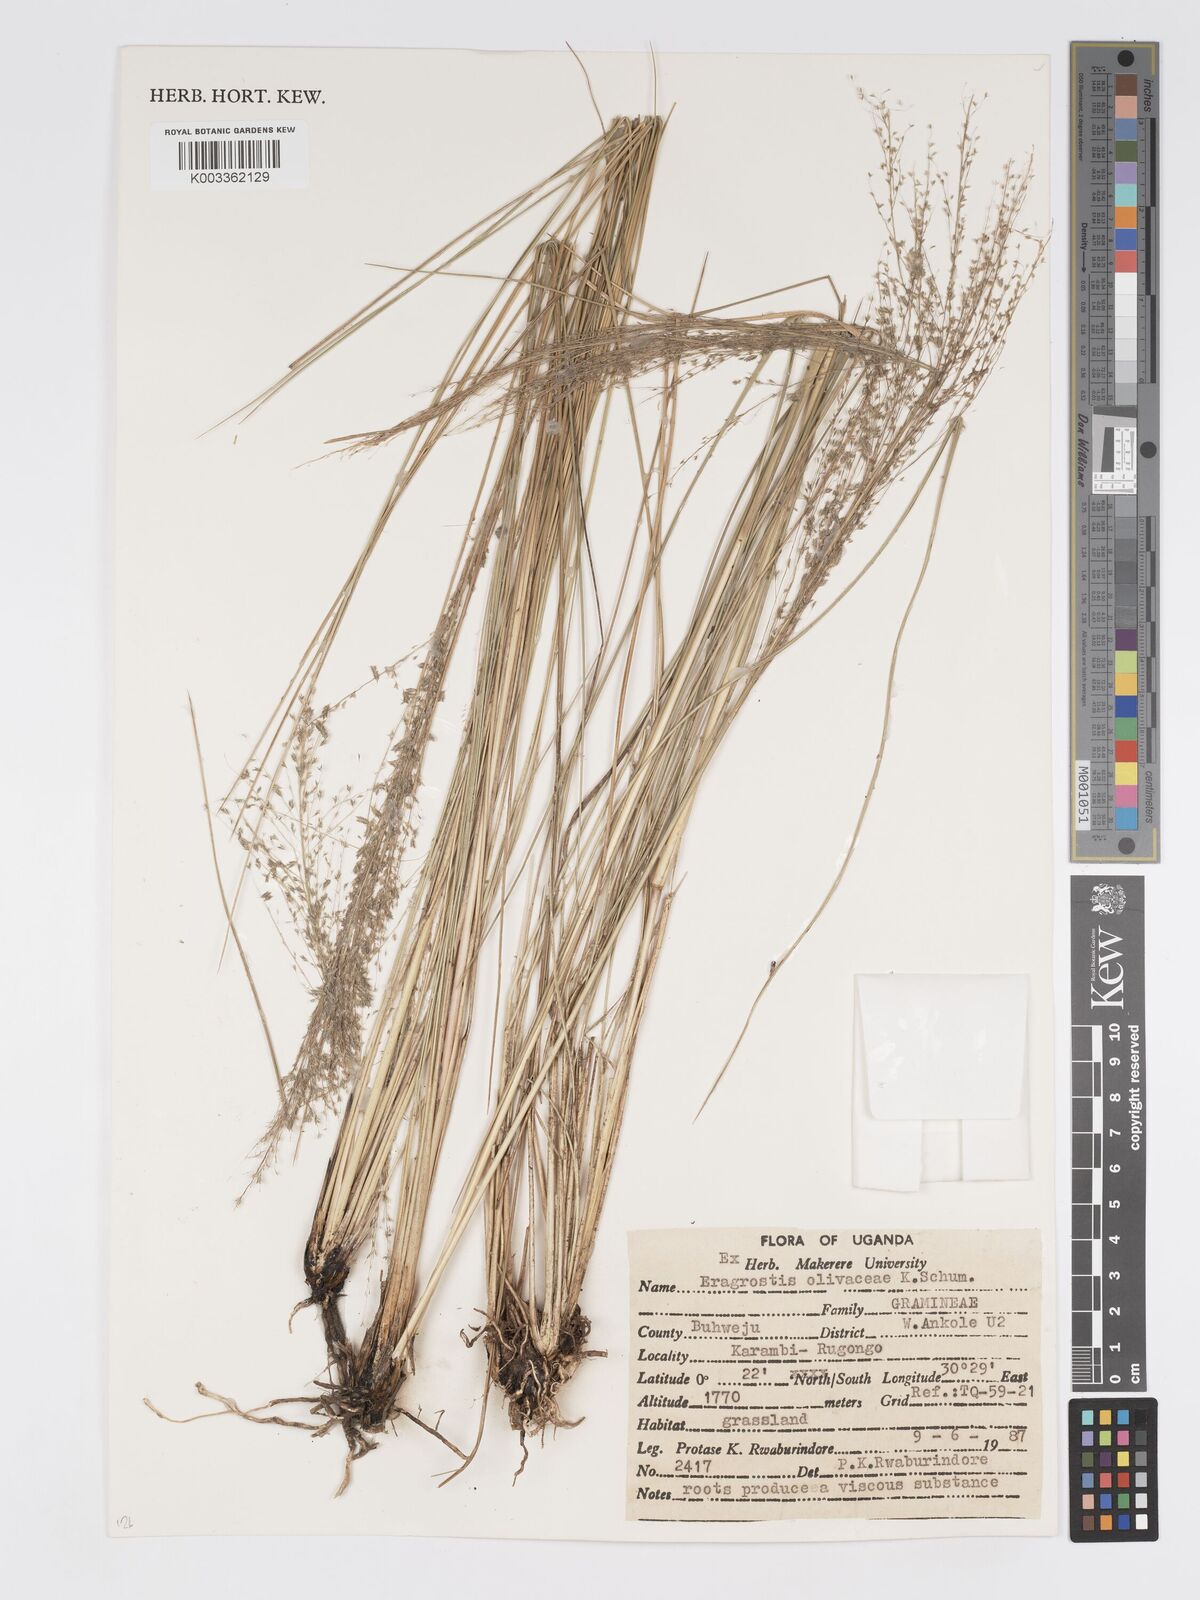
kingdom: Plantae
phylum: Tracheophyta
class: Liliopsida
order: Poales
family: Poaceae
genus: Eragrostis
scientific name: Eragrostis olivacea
